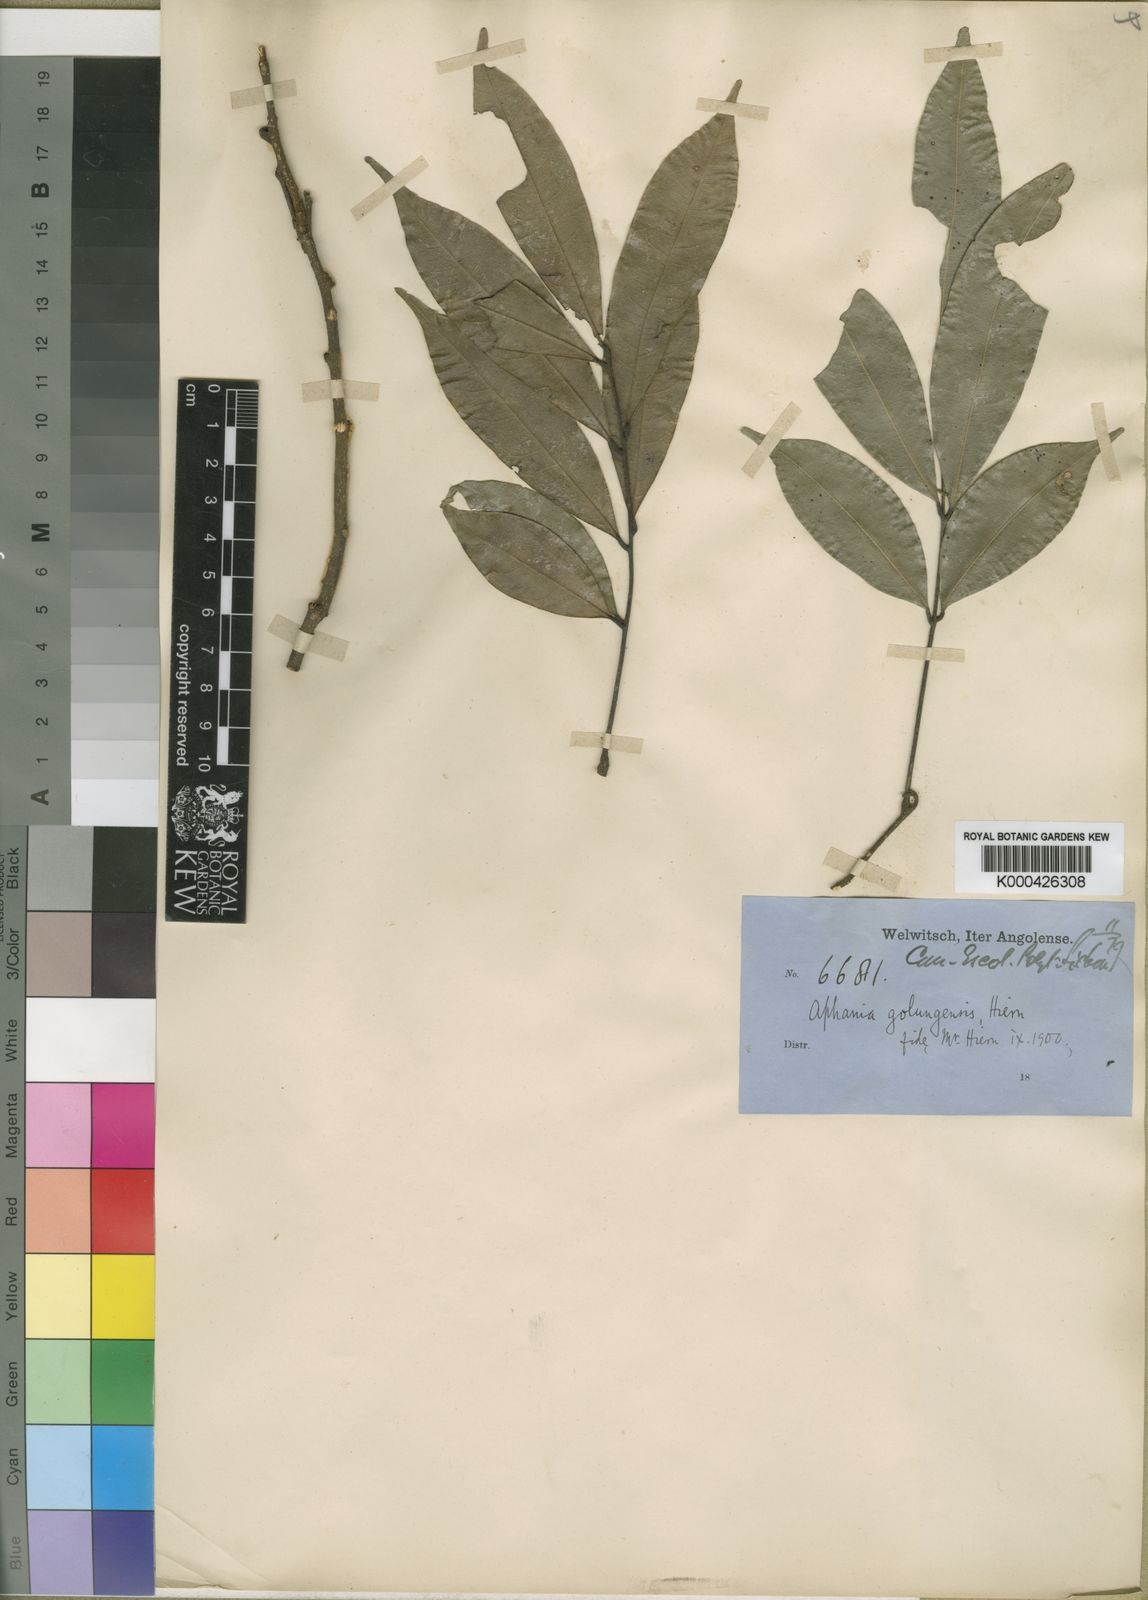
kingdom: Plantae
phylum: Tracheophyta
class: Magnoliopsida
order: Sapindales
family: Sapindaceae
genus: Pancovia
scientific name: Pancovia
